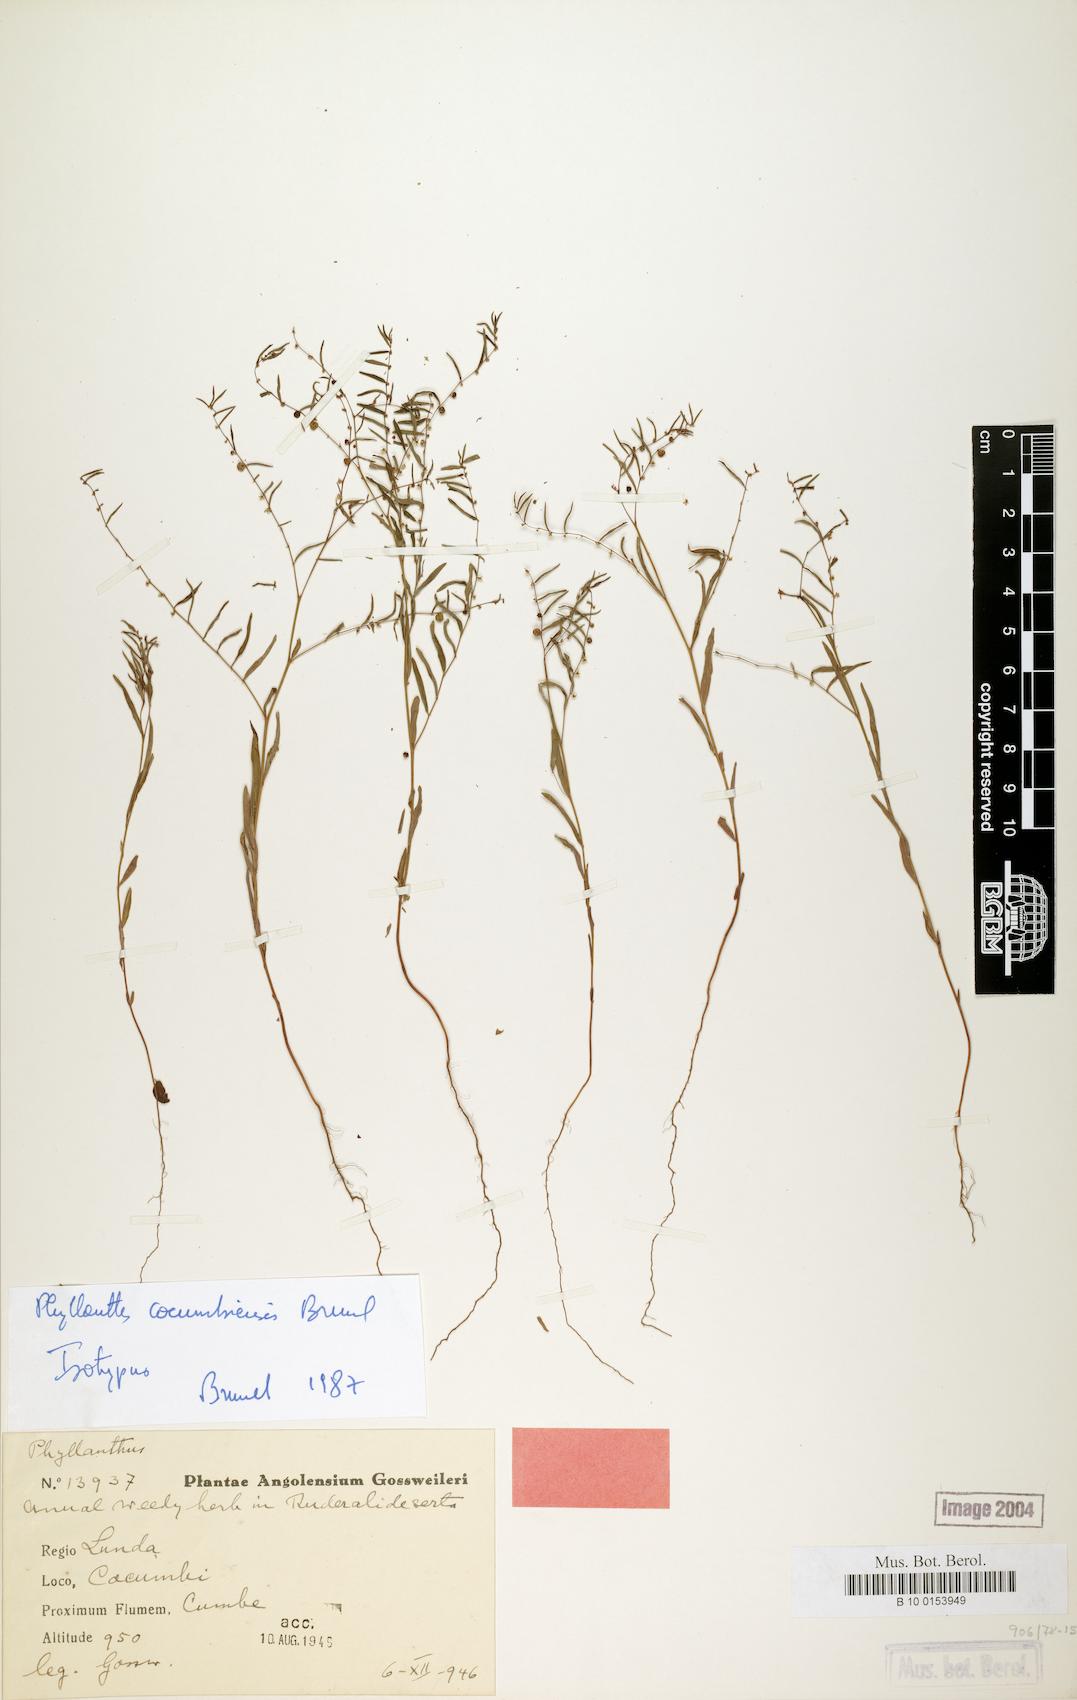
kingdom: Plantae
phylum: Tracheophyta
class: Magnoliopsida
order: Malpighiales
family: Phyllanthaceae
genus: Phyllanthus
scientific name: Phyllanthus cocumbiensis
